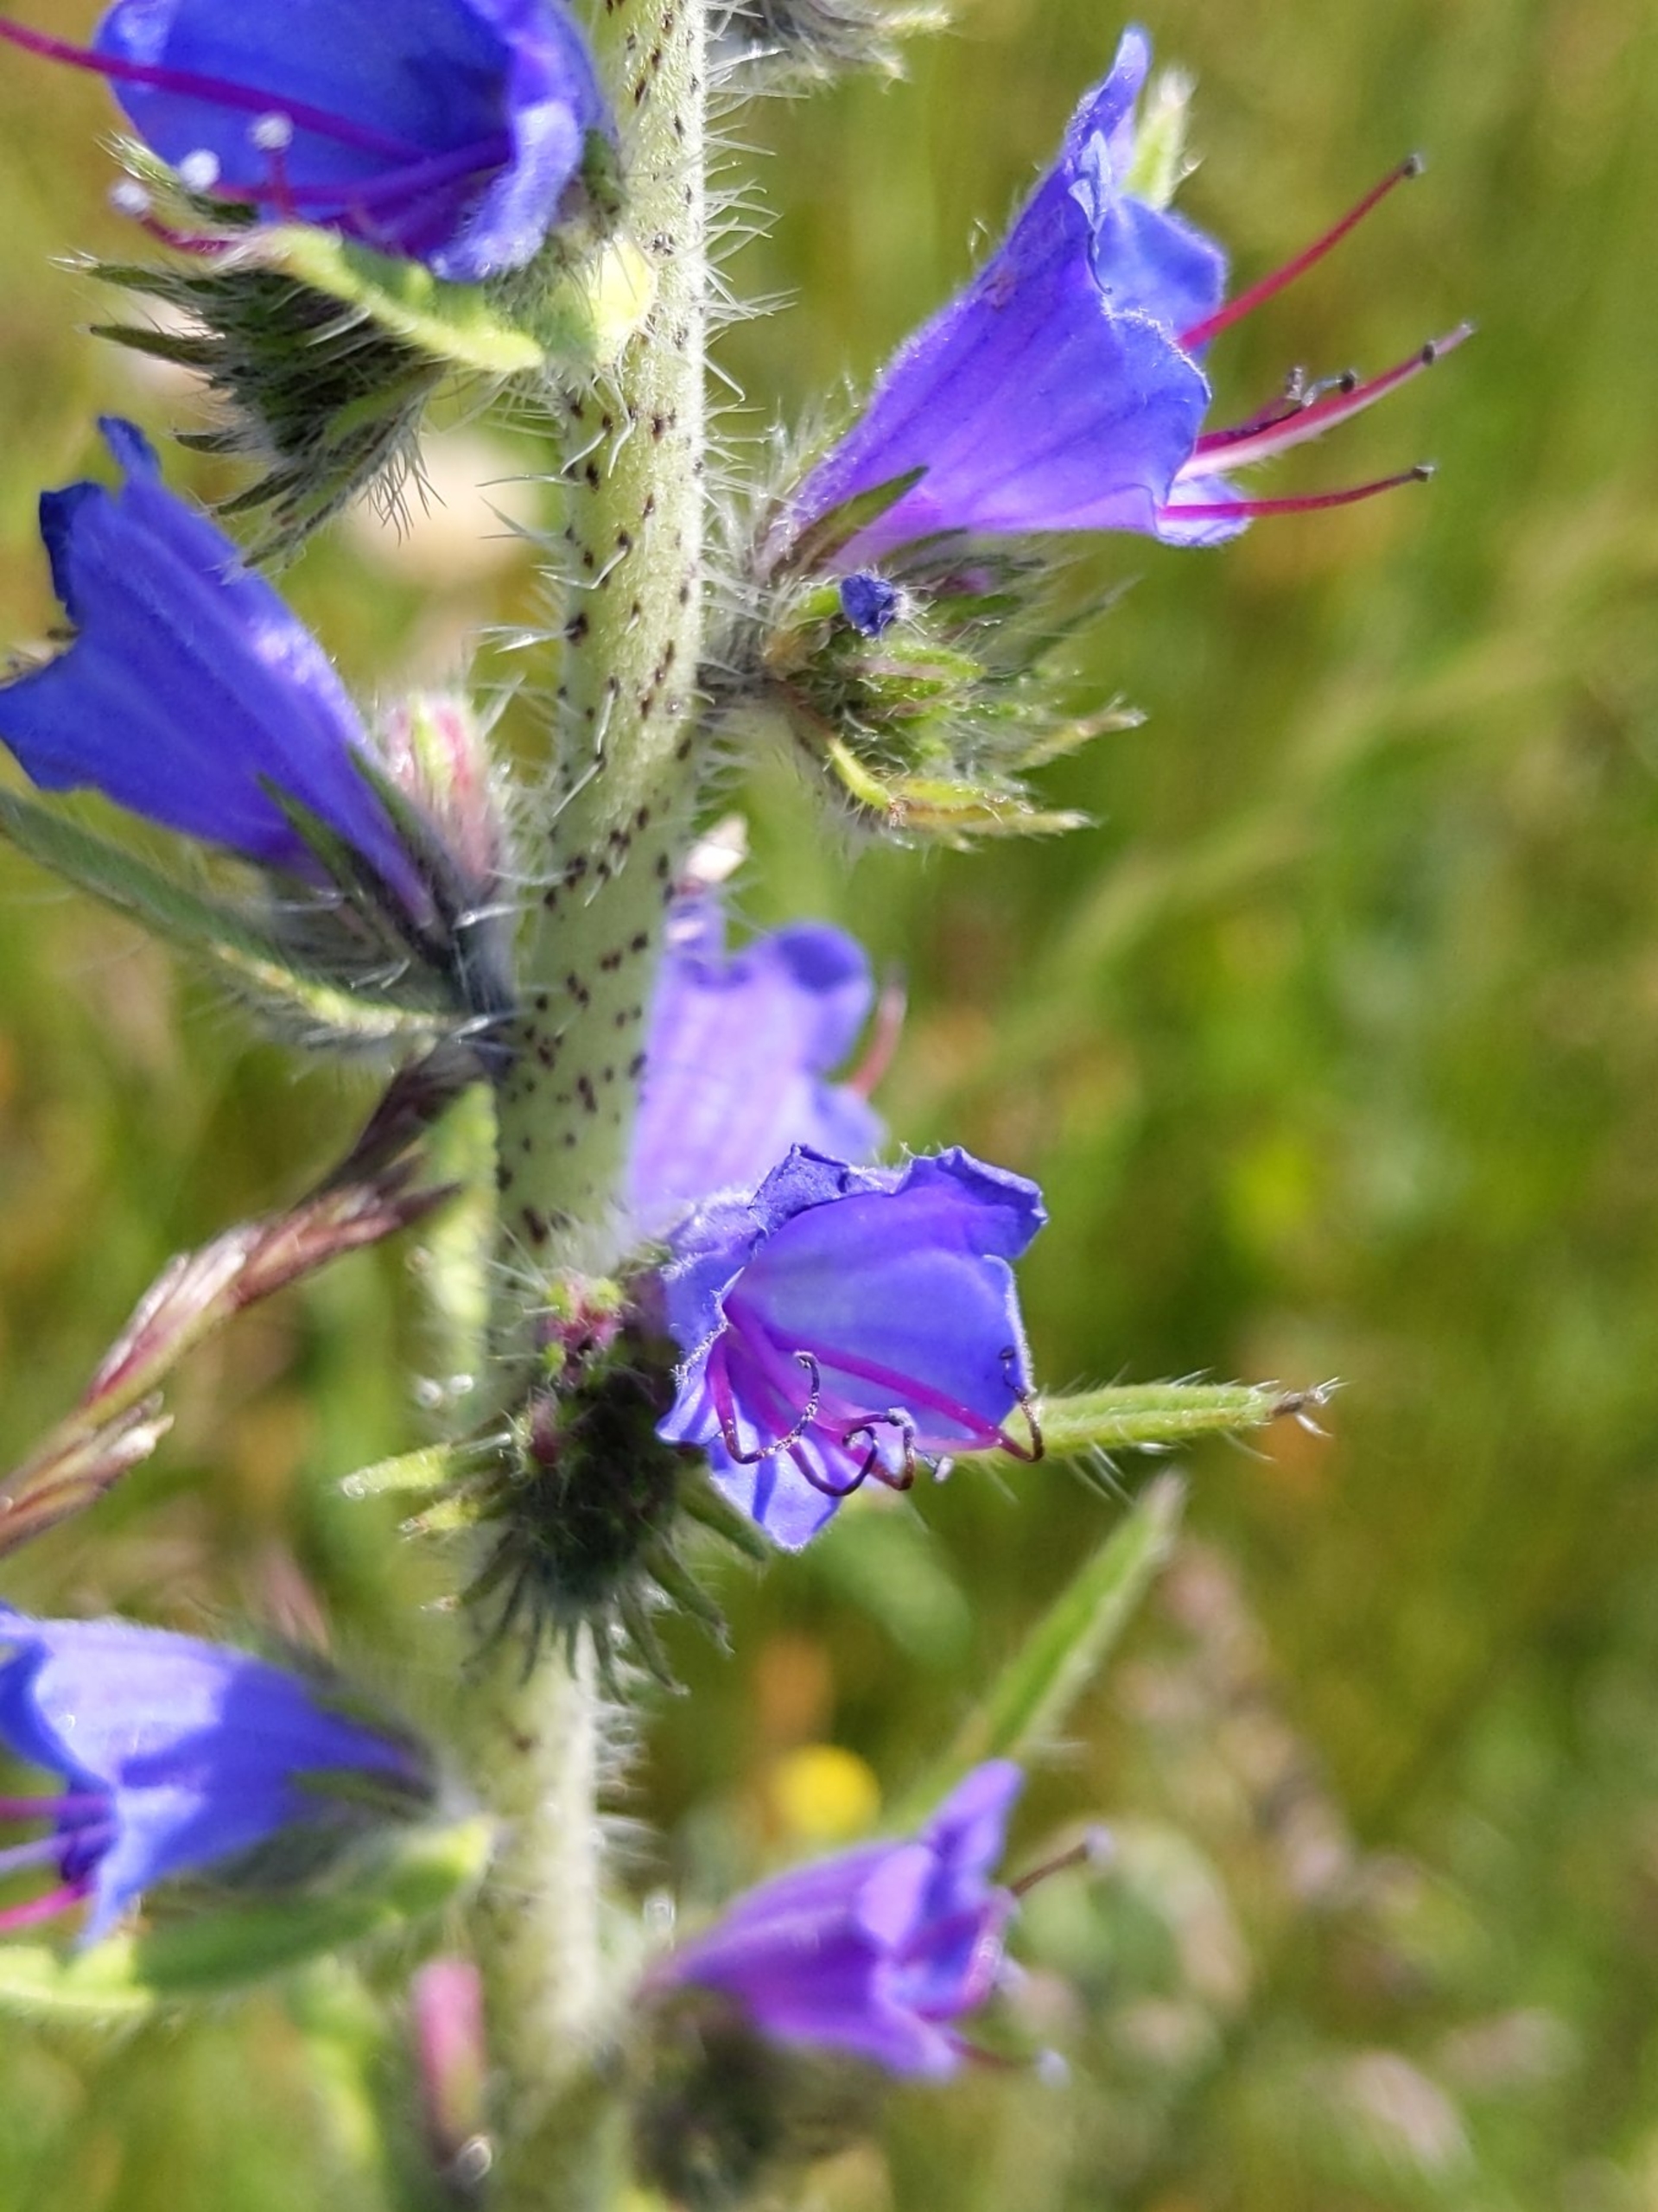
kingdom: Plantae
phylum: Tracheophyta
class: Magnoliopsida
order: Boraginales
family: Boraginaceae
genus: Echium
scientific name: Echium vulgare
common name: Slangehoved
